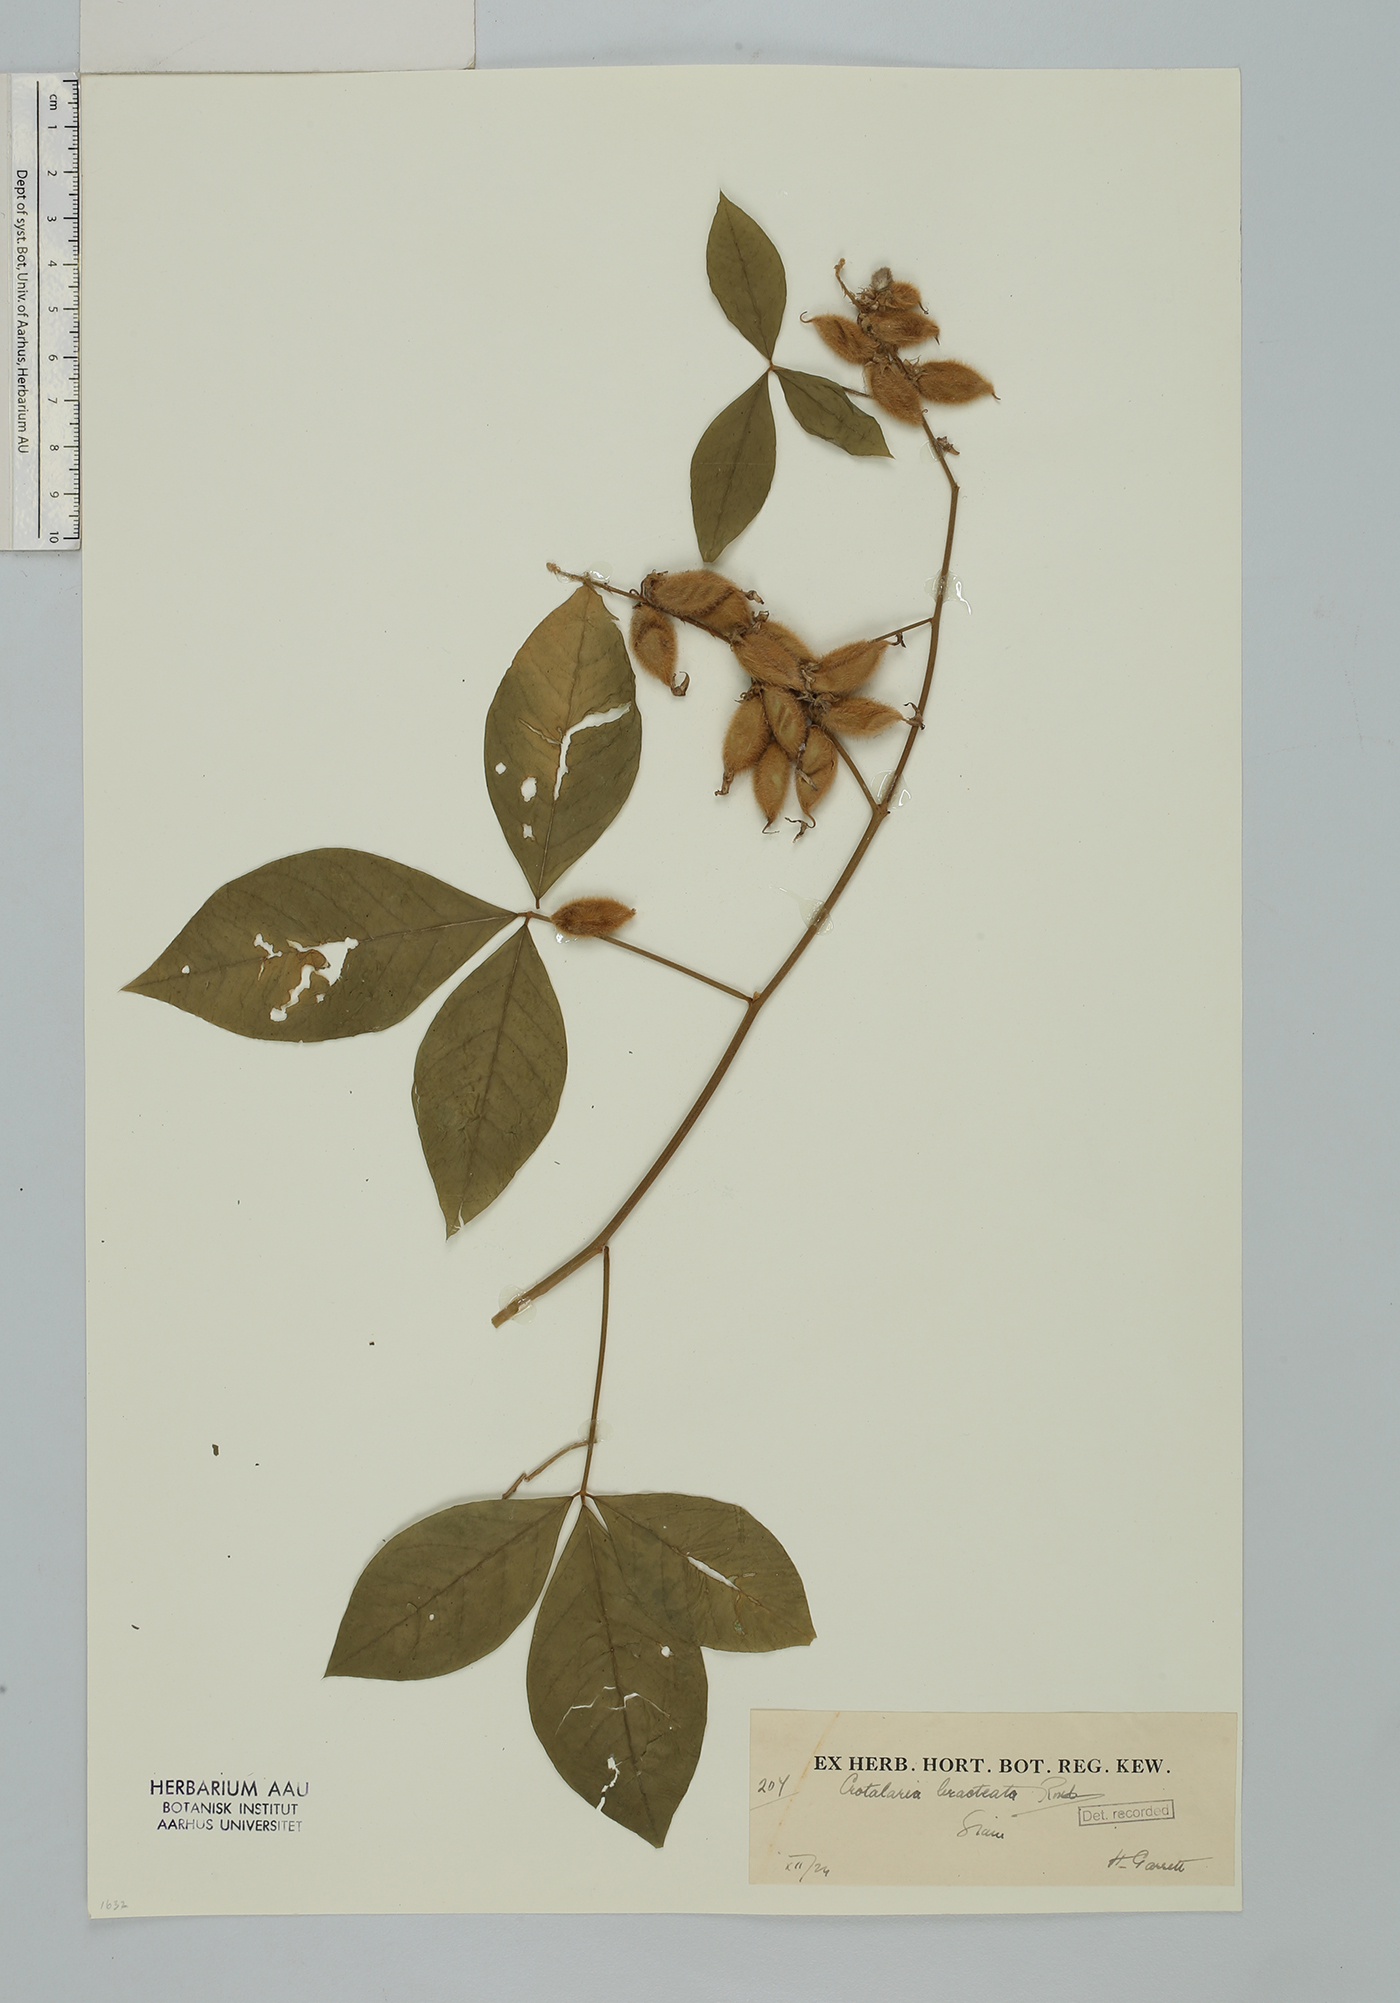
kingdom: Plantae
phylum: Tracheophyta
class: Magnoliopsida
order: Fabales
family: Fabaceae
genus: Crotalaria
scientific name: Crotalaria bracteata
